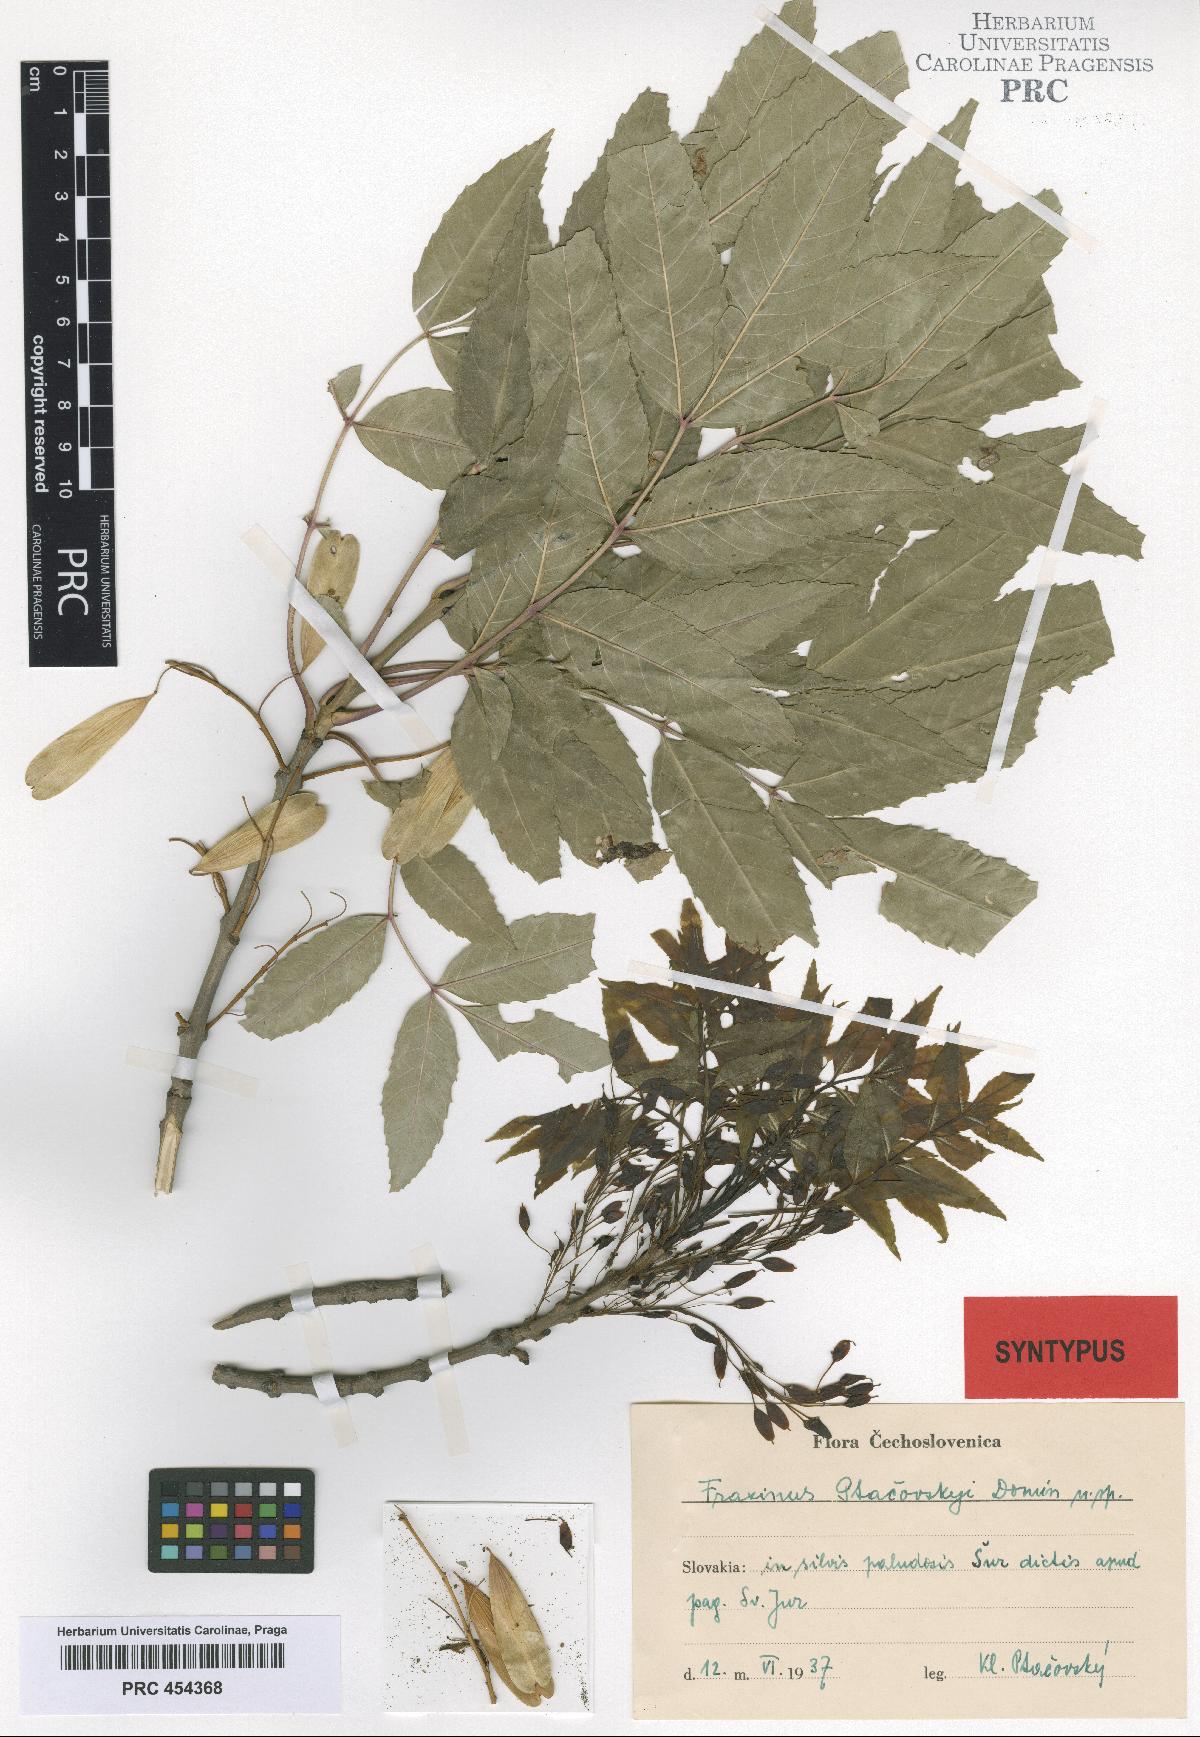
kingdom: Plantae
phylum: Tracheophyta
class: Magnoliopsida
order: Lamiales
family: Oleaceae
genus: Fraxinus
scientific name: Fraxinus angustifolia
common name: Narrow-leafed ash
